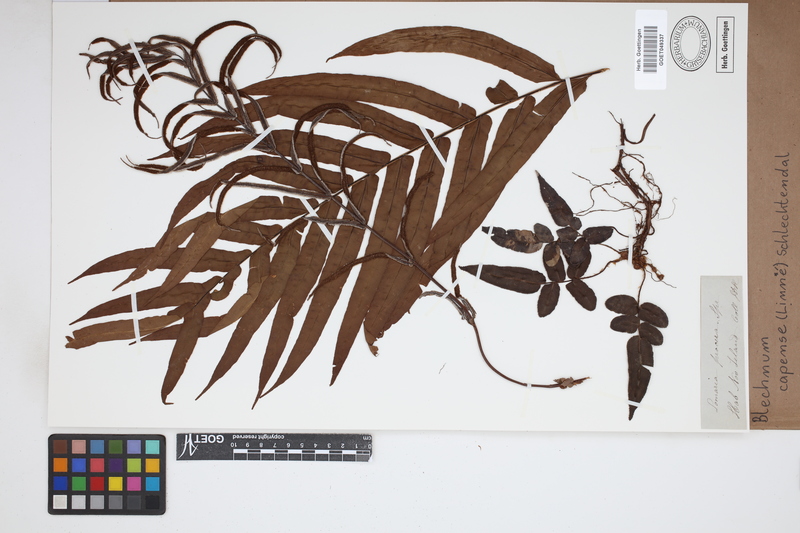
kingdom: Plantae
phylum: Tracheophyta
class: Polypodiopsida
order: Polypodiales
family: Blechnaceae
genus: Parablechnum
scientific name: Parablechnum capense
